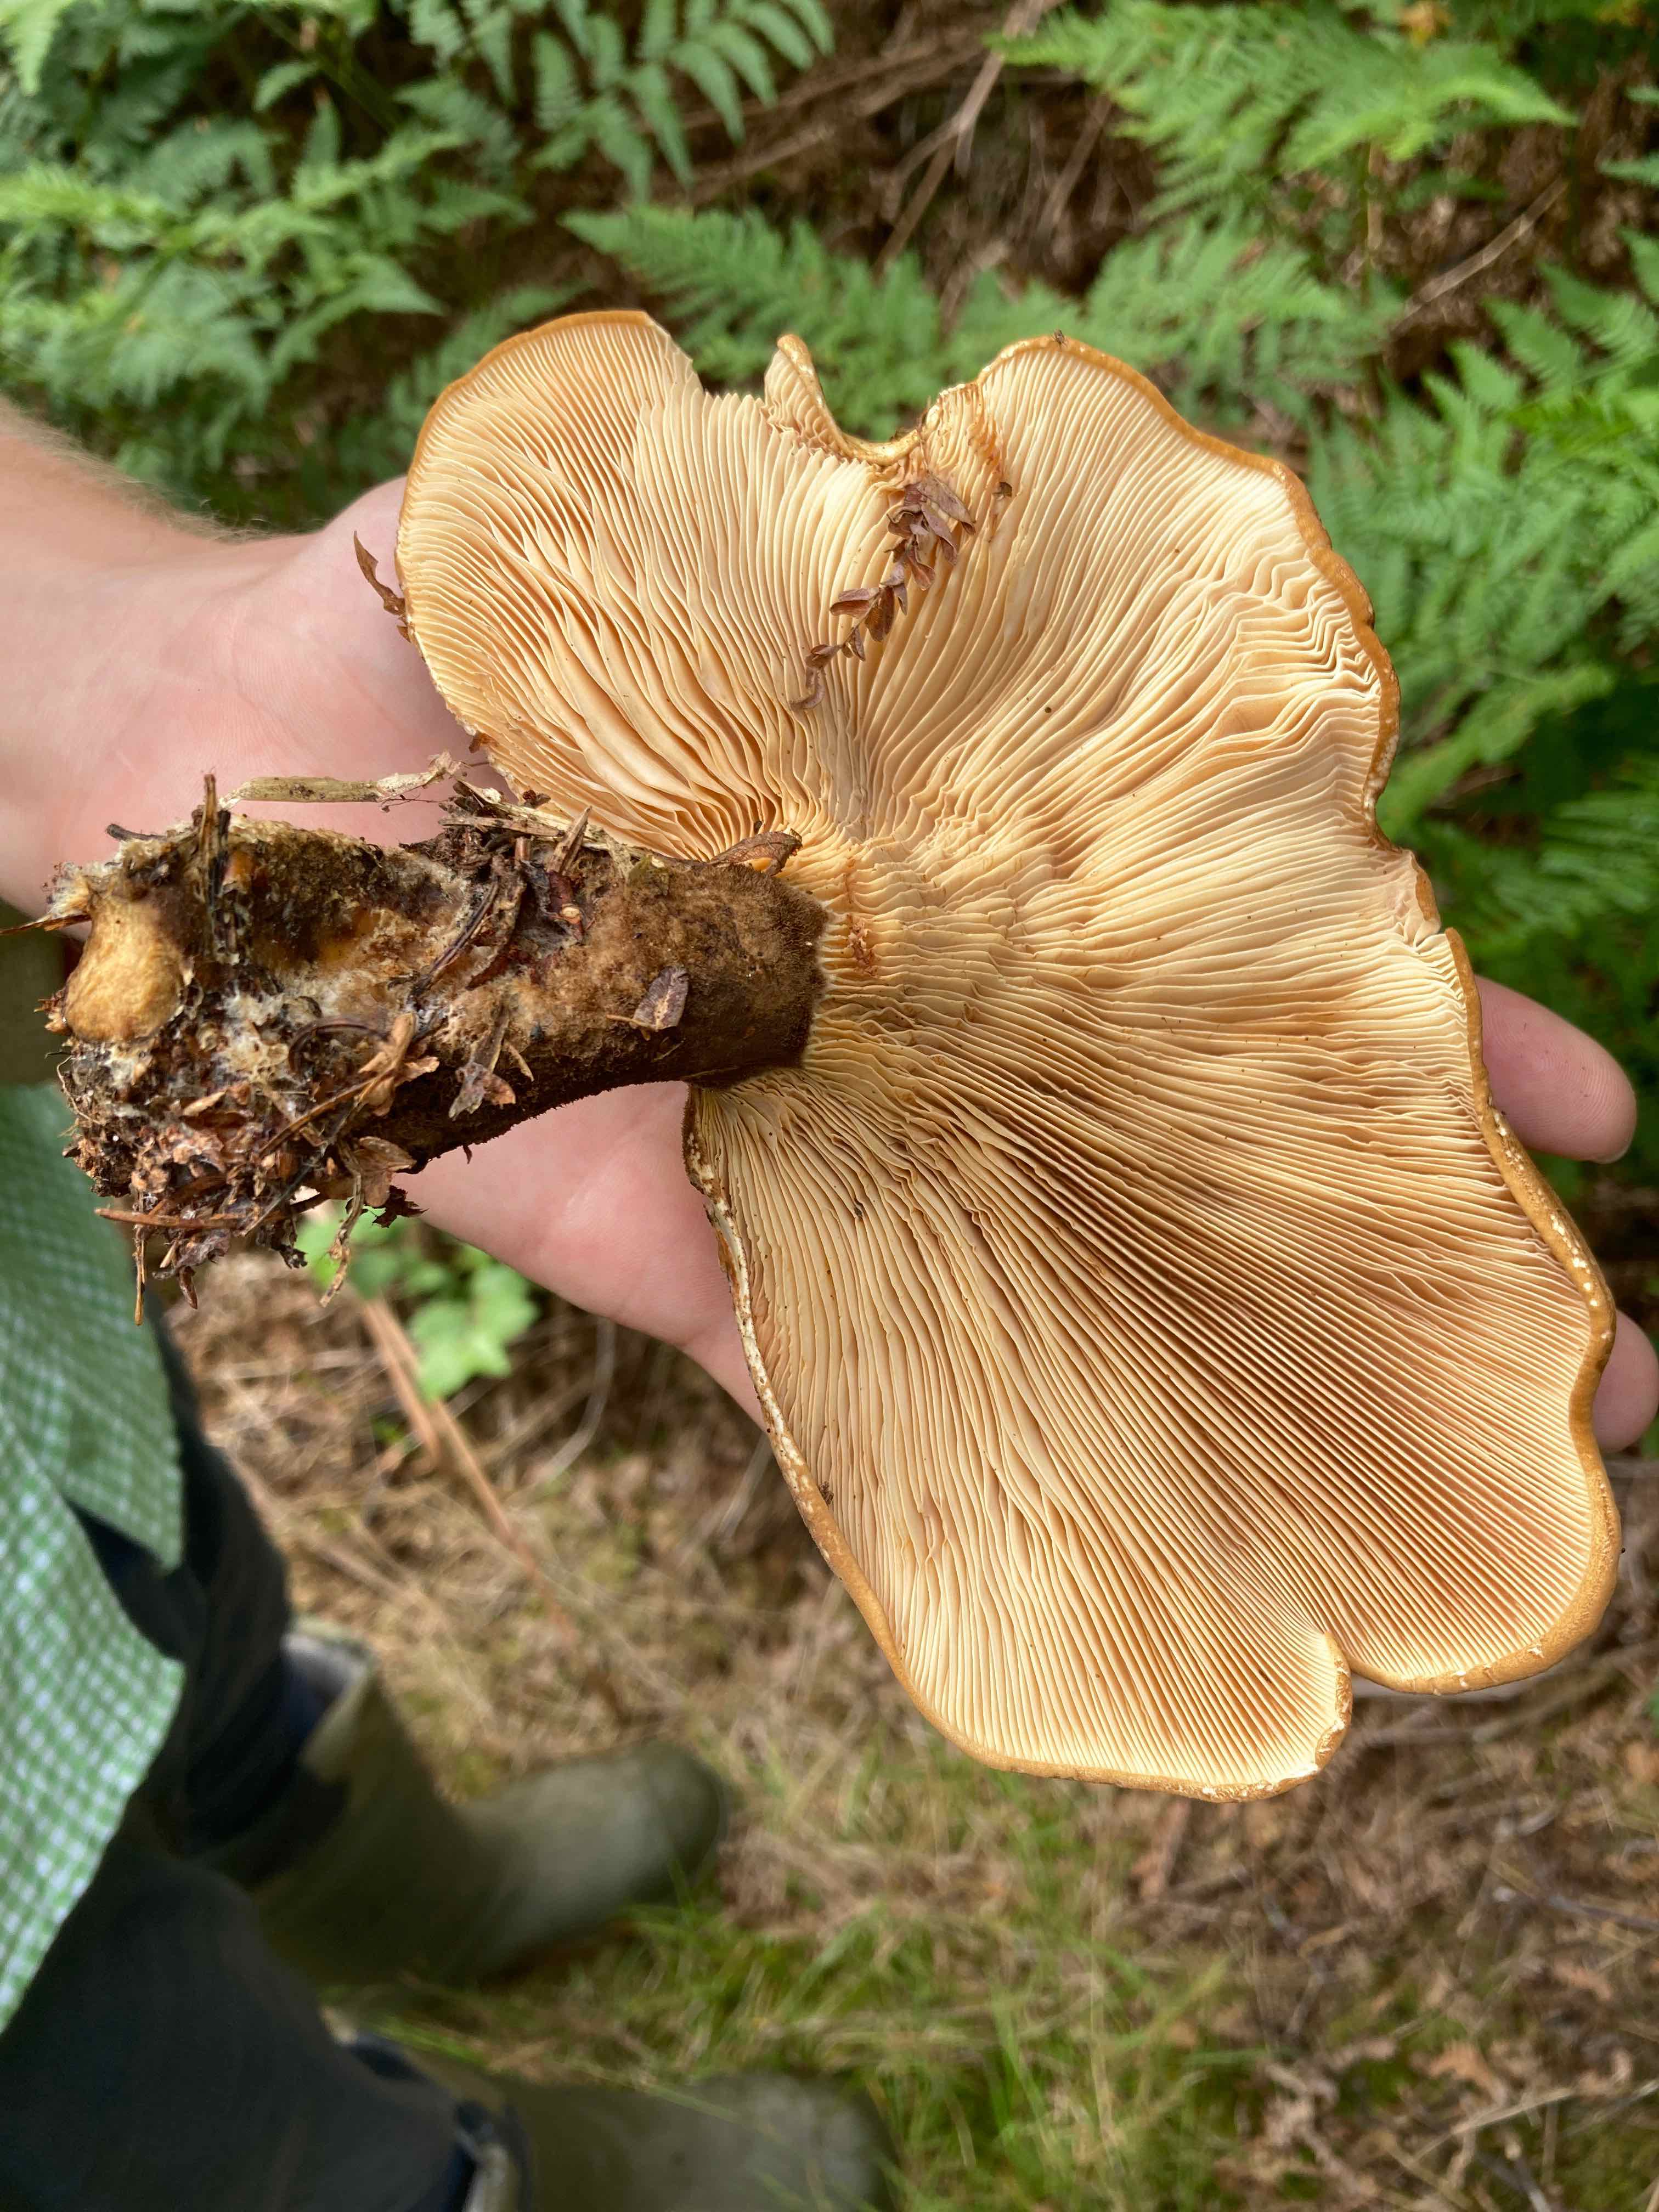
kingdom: Fungi
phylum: Basidiomycota
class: Agaricomycetes
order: Boletales
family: Tapinellaceae
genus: Tapinella
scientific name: Tapinella atrotomentosa
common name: sortfiltet viftesvamp
